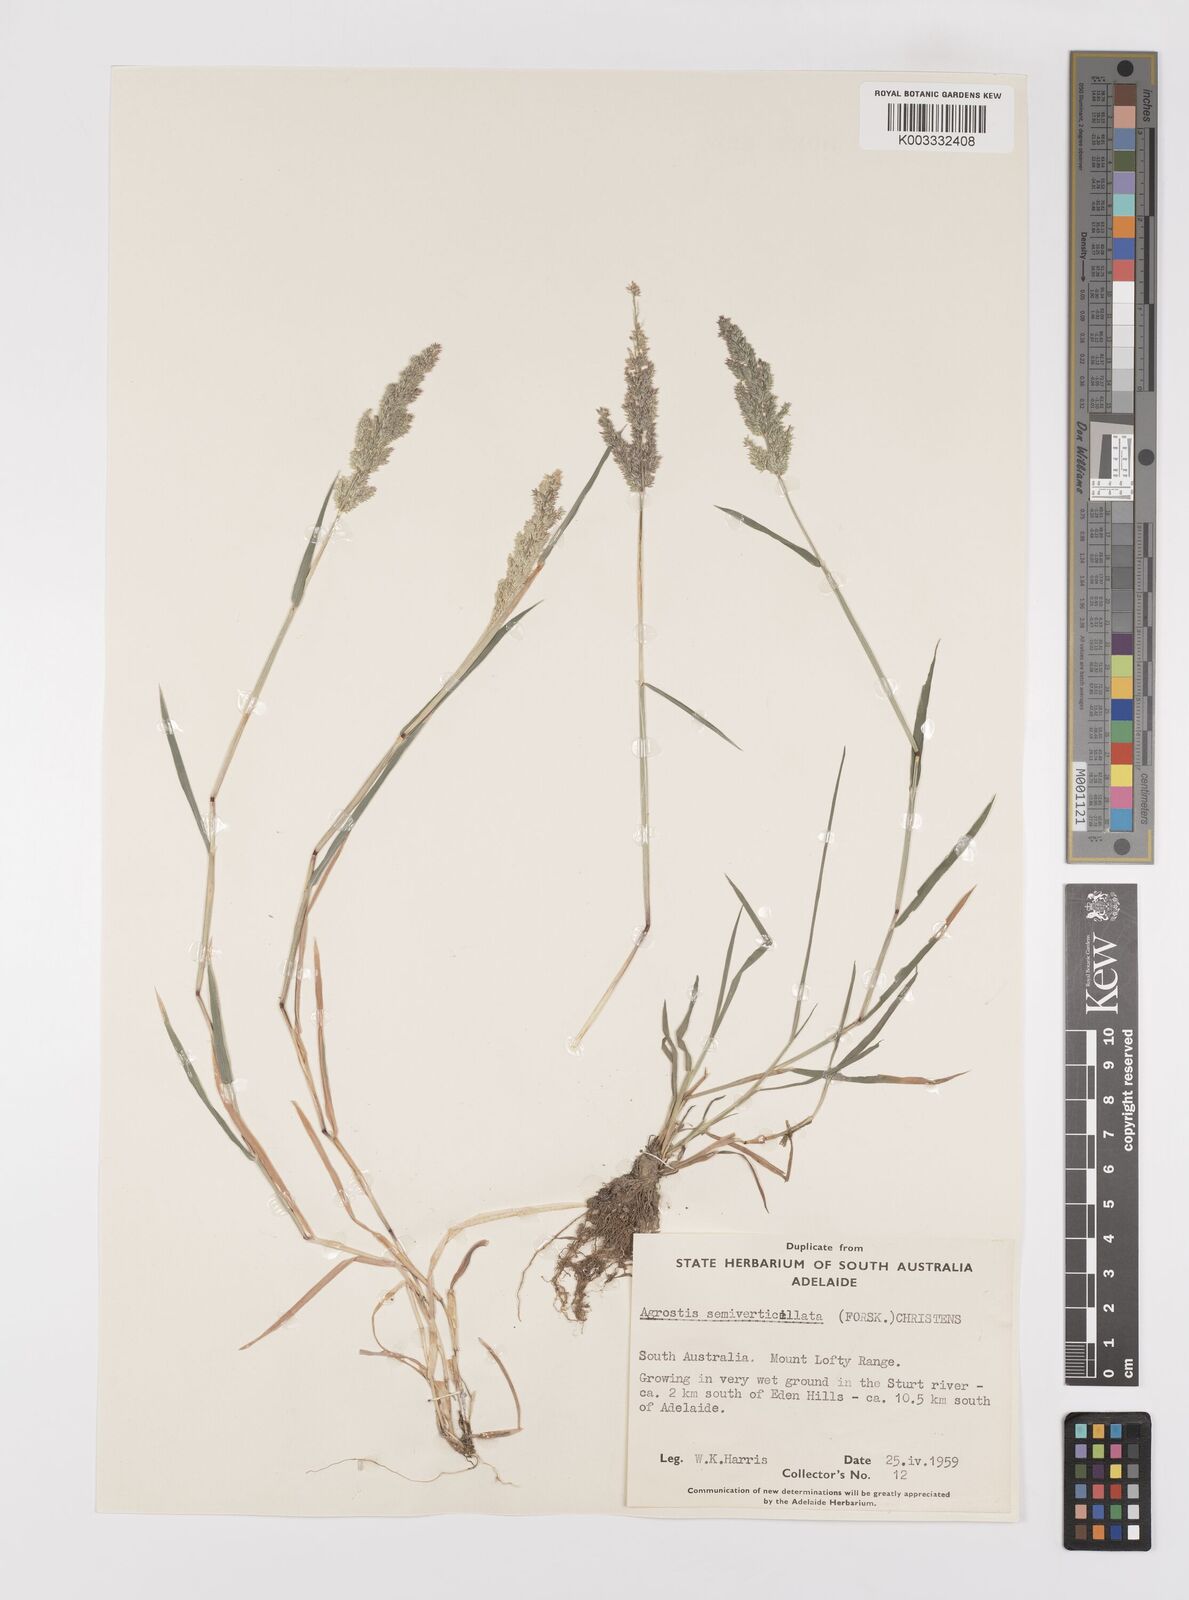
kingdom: Plantae
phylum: Tracheophyta
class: Liliopsida
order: Poales
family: Poaceae
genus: Polypogon
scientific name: Polypogon viridis
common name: Water bent
